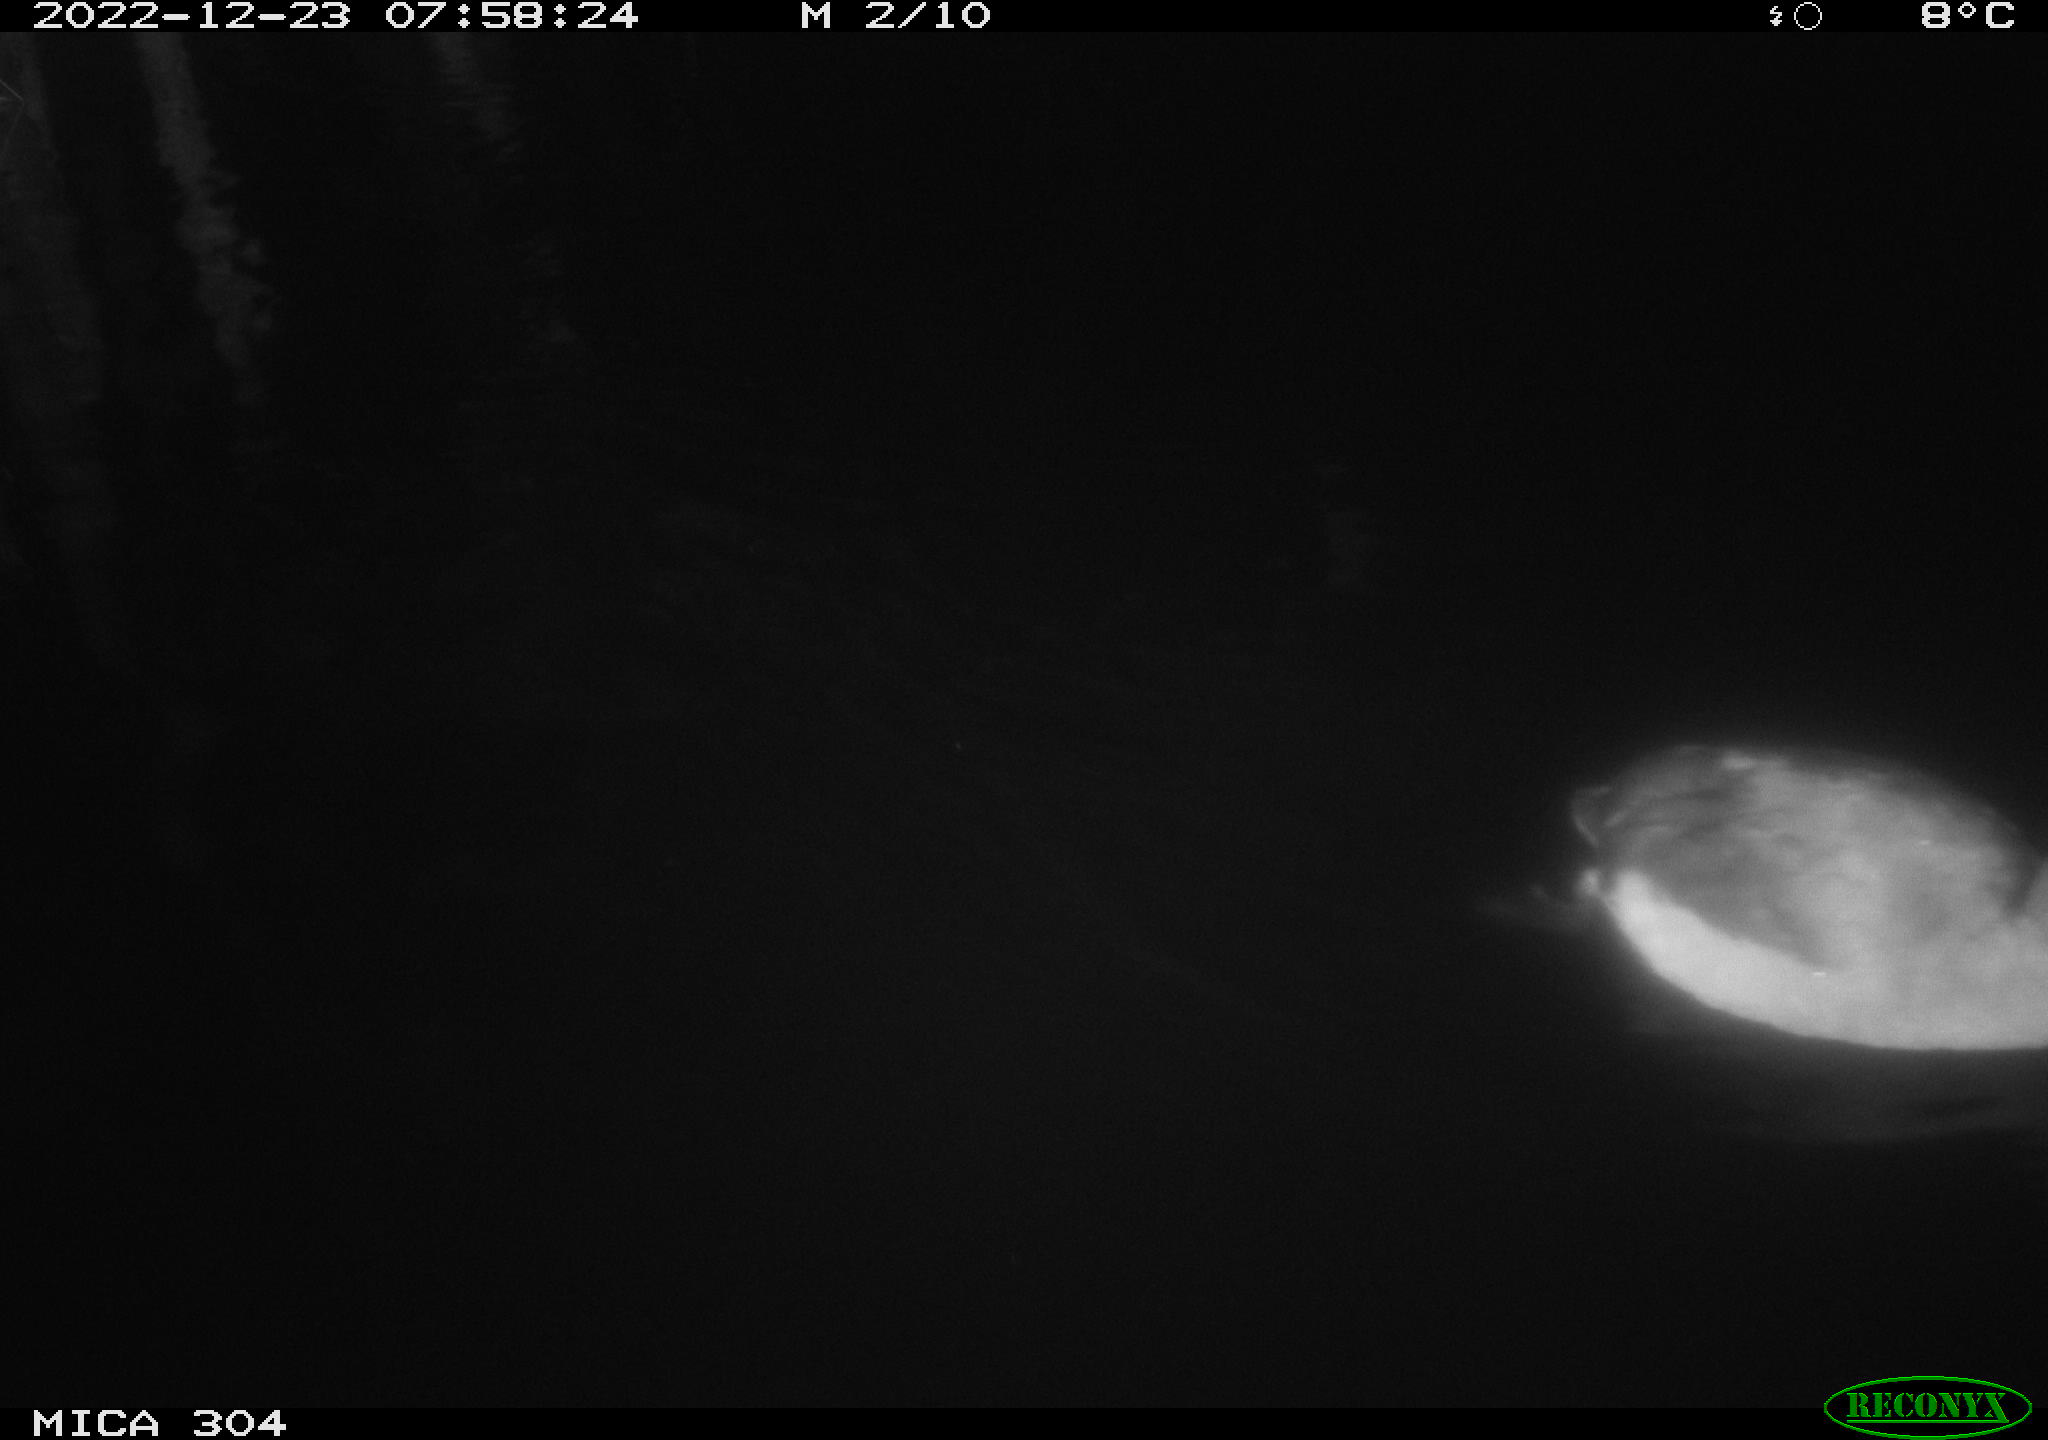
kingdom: Animalia
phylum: Chordata
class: Aves
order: Anseriformes
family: Anatidae
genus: Anas
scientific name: Anas
